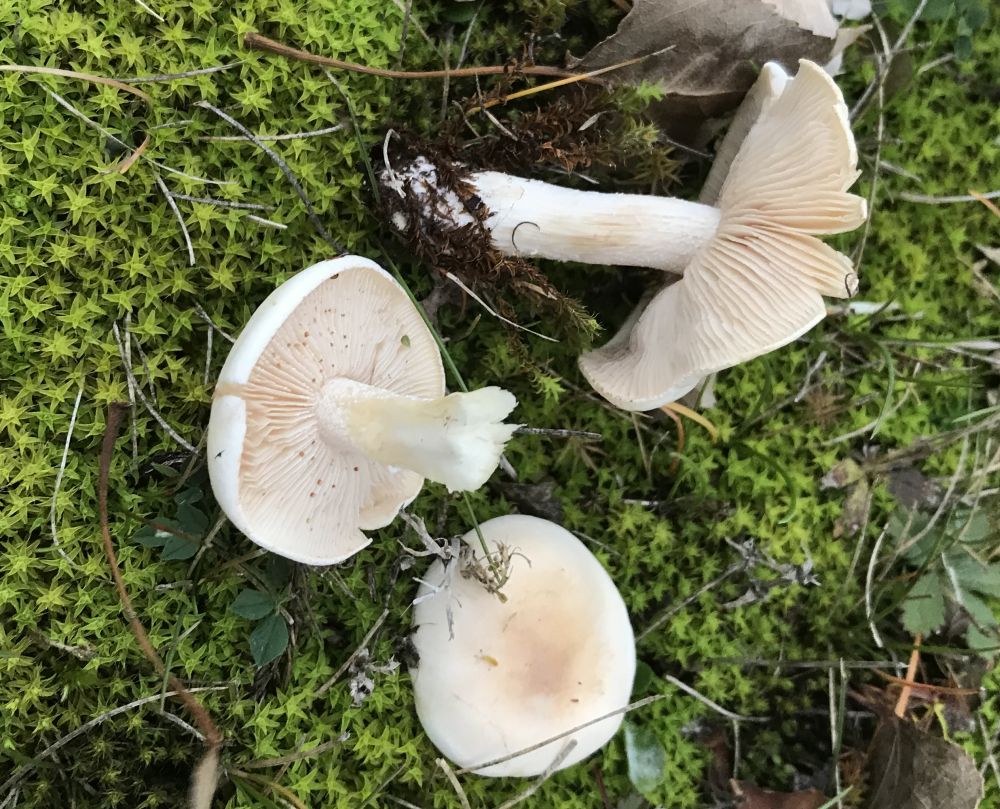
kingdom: Fungi
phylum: Basidiomycota
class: Agaricomycetes
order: Agaricales
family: Hymenogastraceae
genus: Hebeloma
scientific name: Hebeloma
